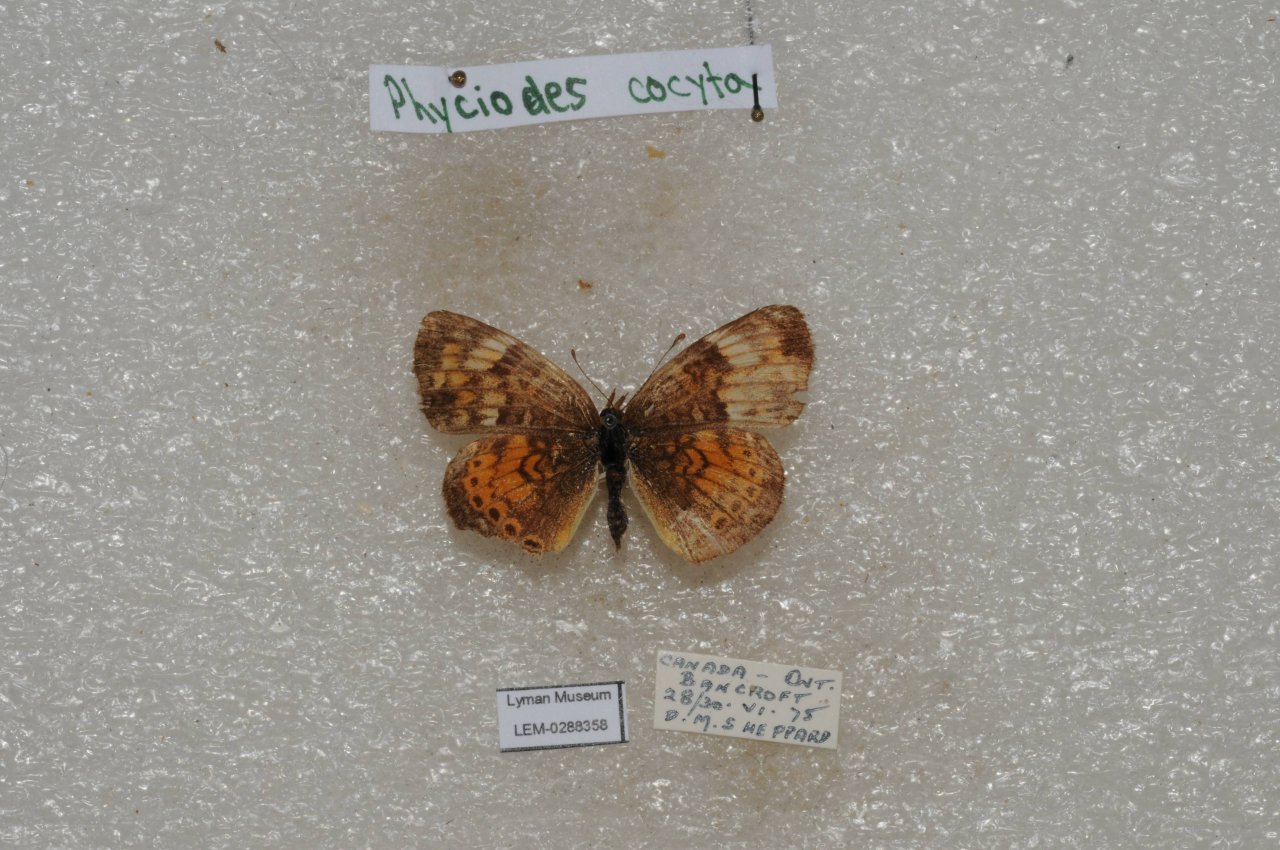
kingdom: Animalia
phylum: Arthropoda
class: Insecta
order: Lepidoptera
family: Nymphalidae
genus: Phyciodes
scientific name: Phyciodes tharos
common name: Northern Crescent
